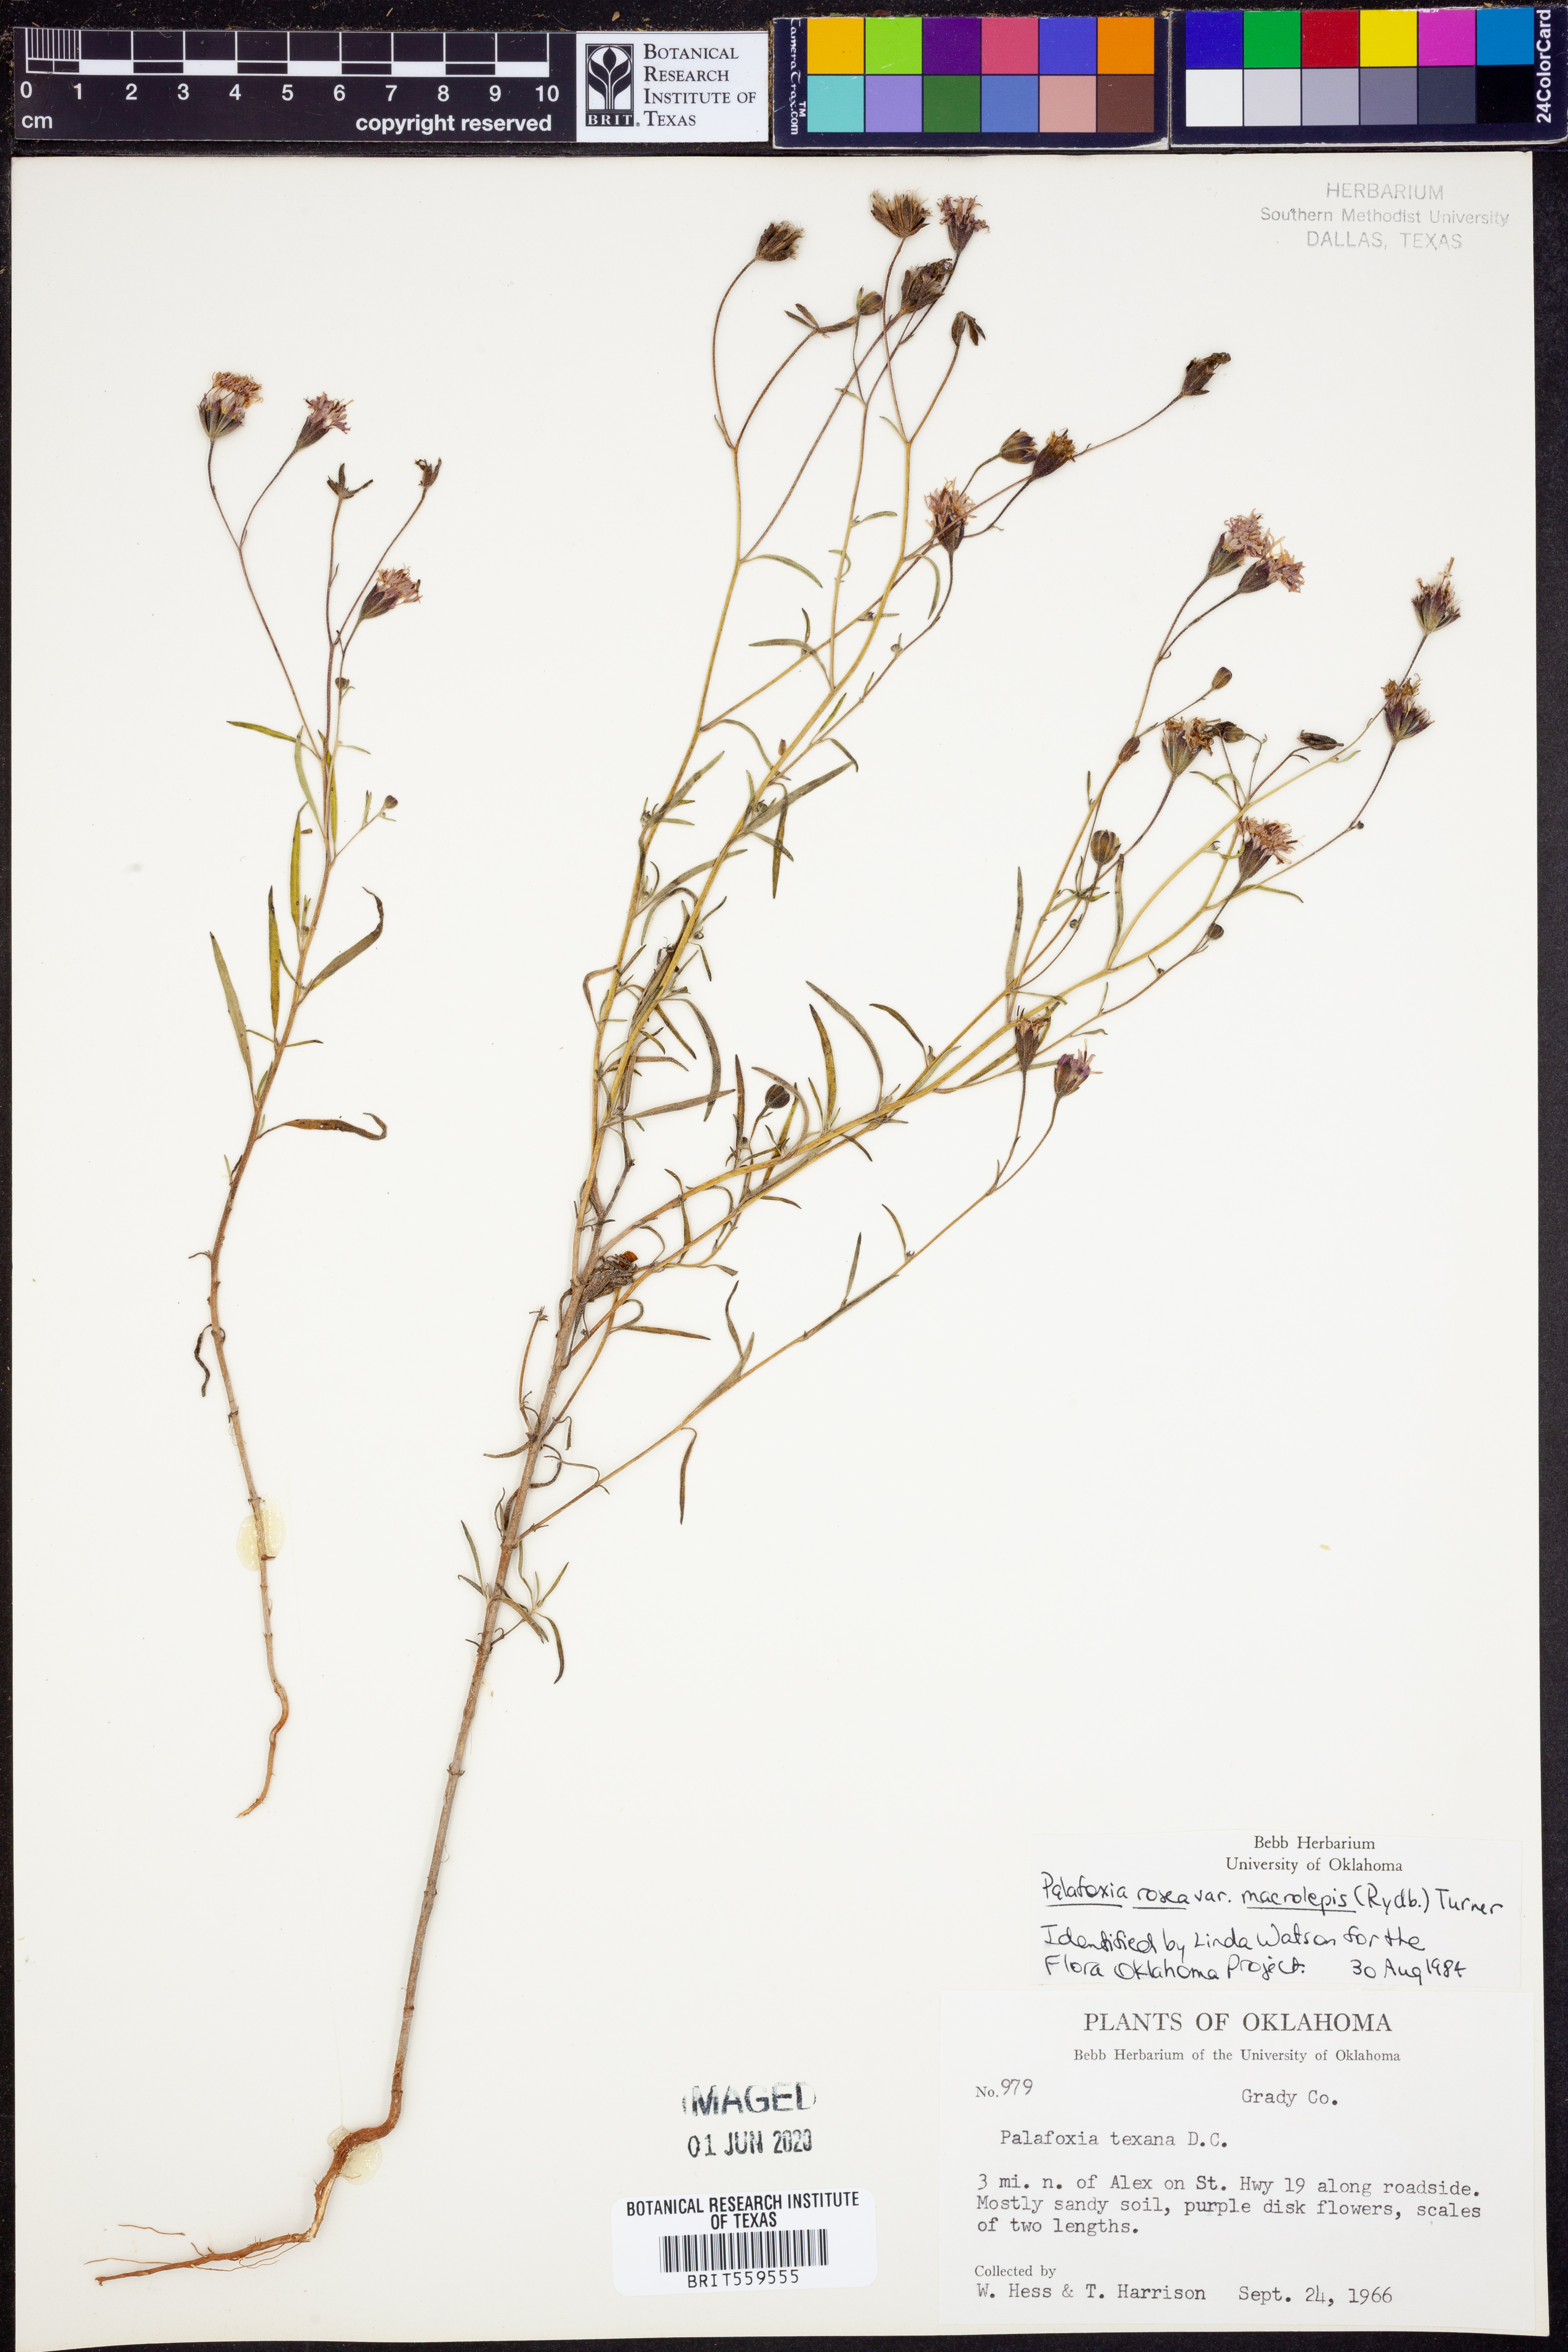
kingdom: Plantae
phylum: Tracheophyta
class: Magnoliopsida
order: Asterales
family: Asteraceae
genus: Palafoxia
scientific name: Palafoxia rosea
